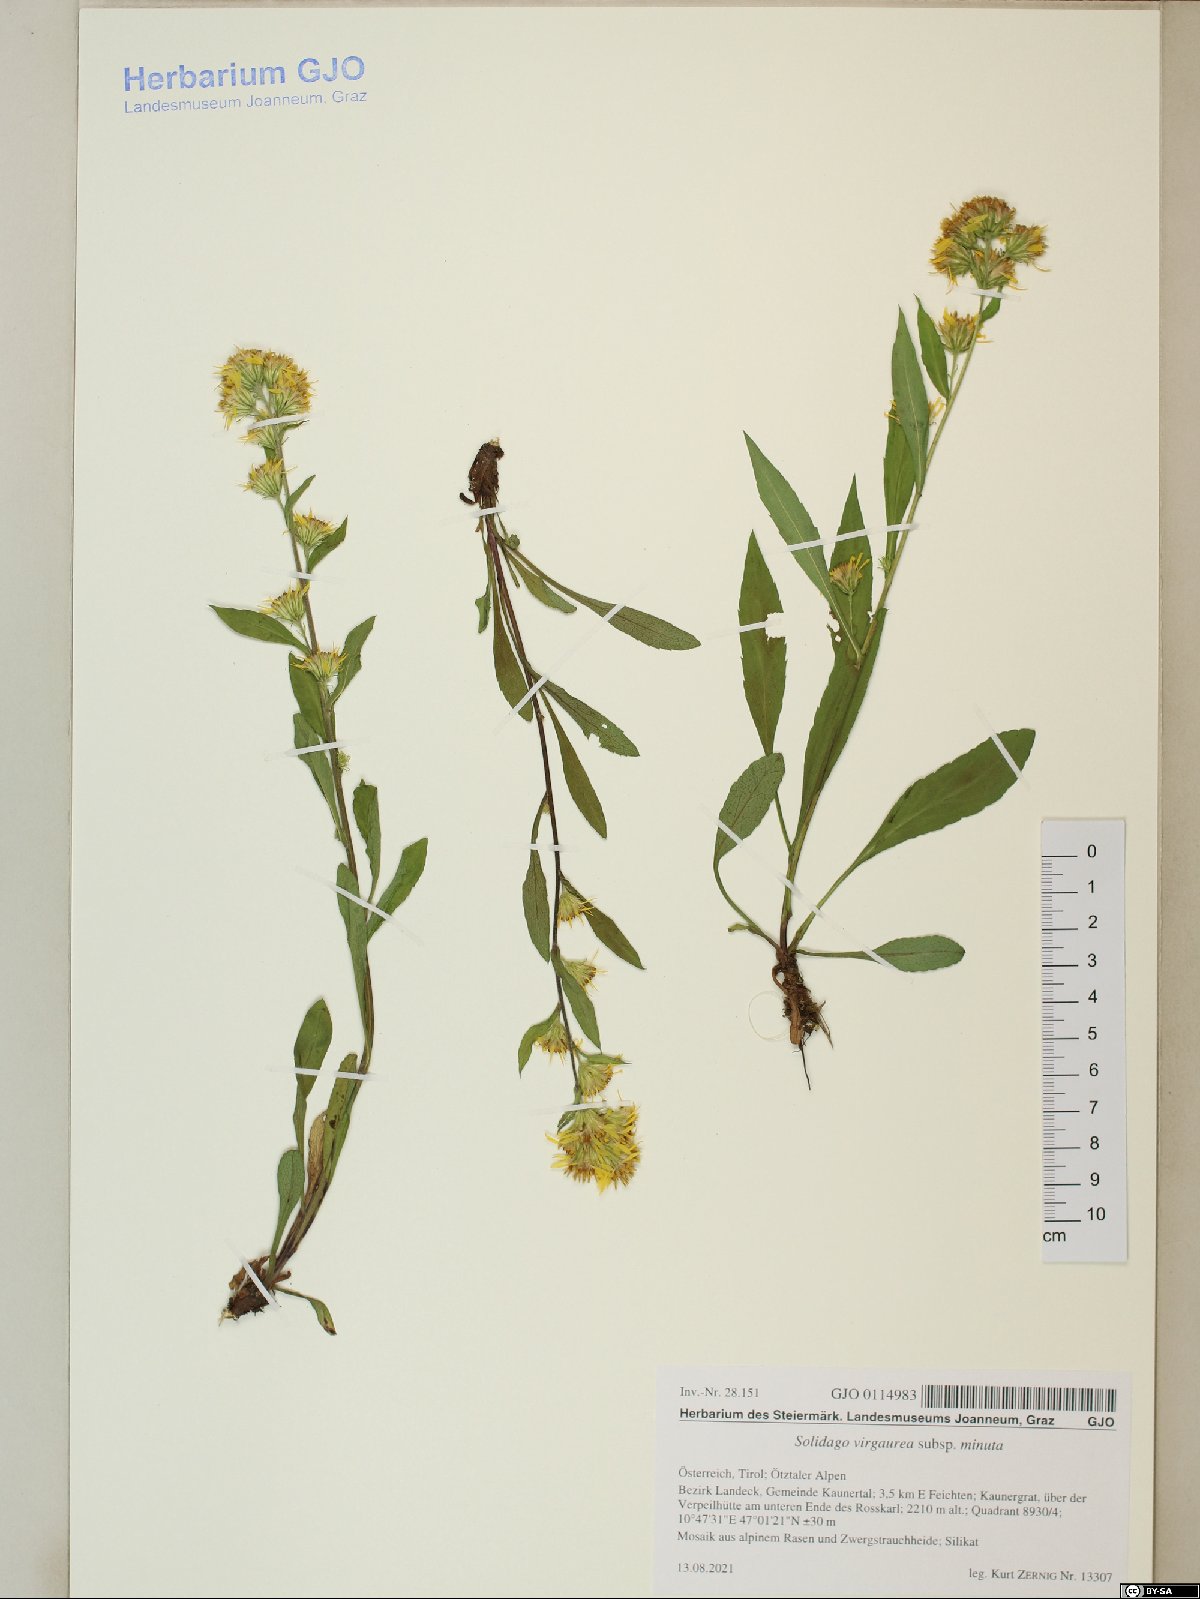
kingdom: Plantae
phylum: Tracheophyta
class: Magnoliopsida
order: Asterales
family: Asteraceae
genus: Solidago
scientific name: Solidago virgaurea
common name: Goldenrod
